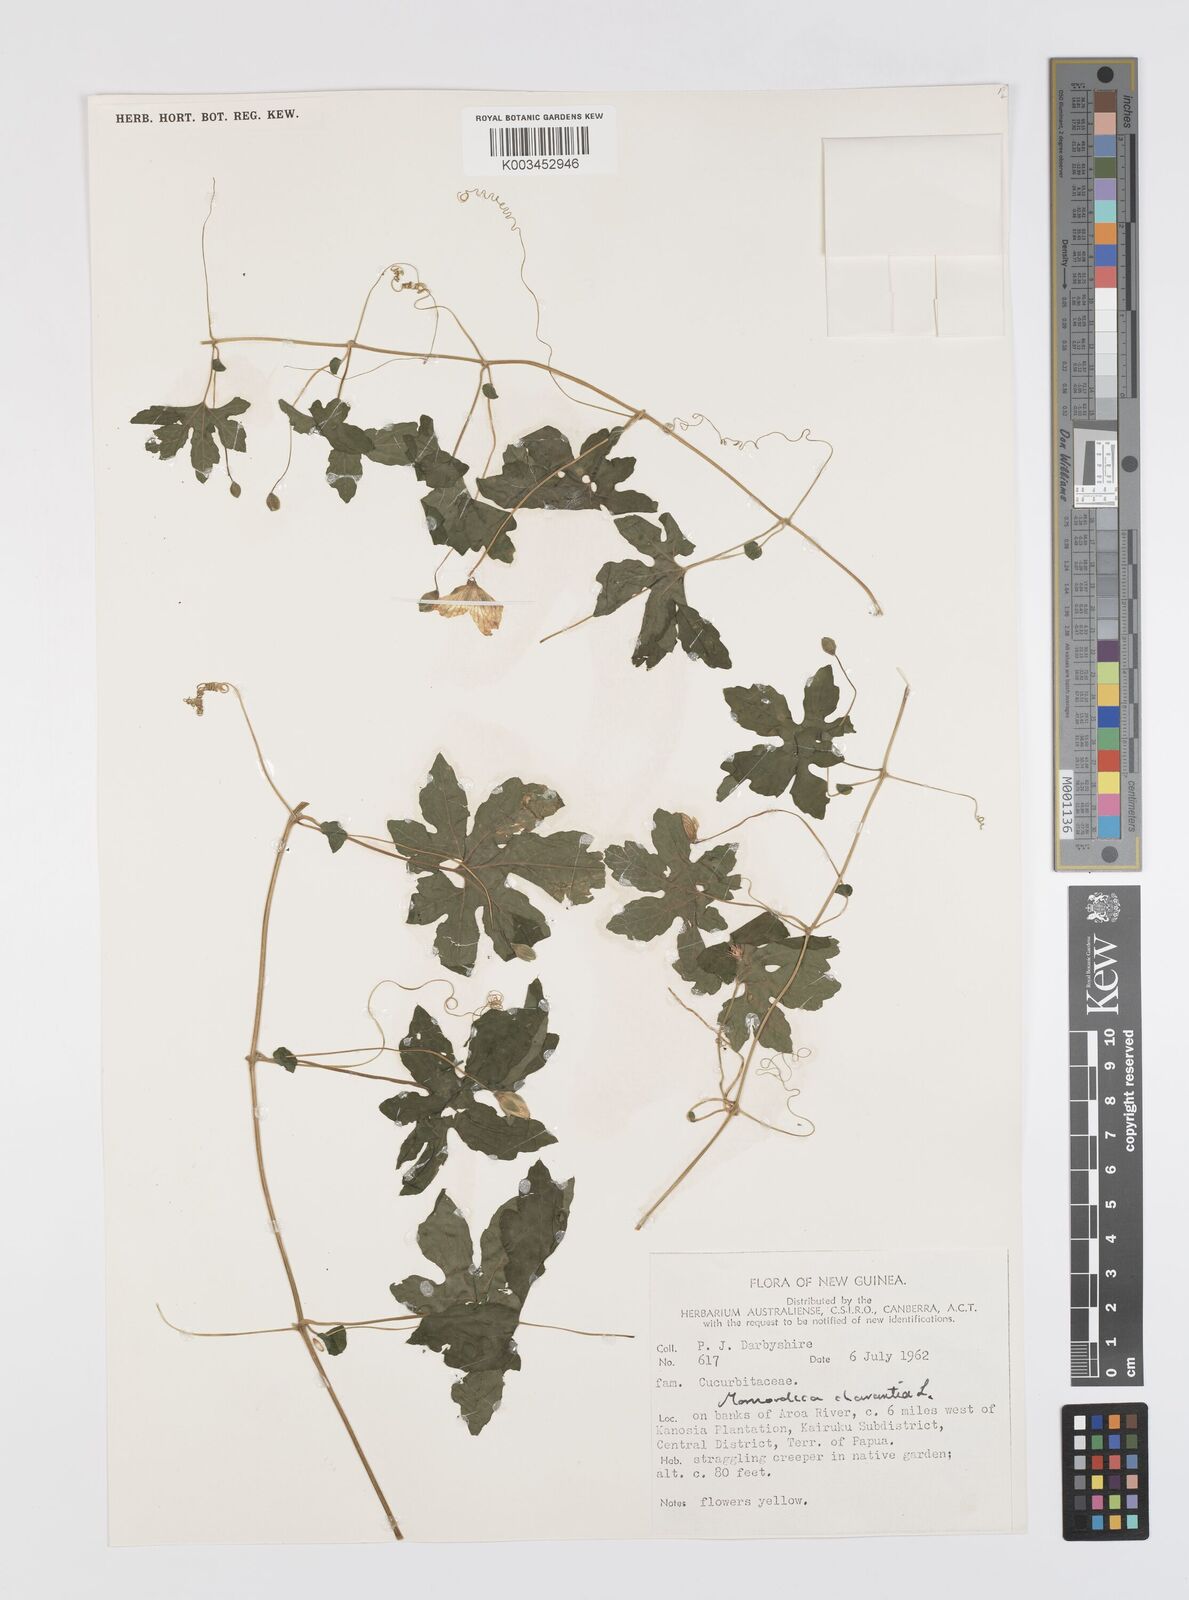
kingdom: Plantae
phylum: Tracheophyta
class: Magnoliopsida
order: Cucurbitales
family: Cucurbitaceae
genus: Momordica
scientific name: Momordica charantia
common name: Balsampear
